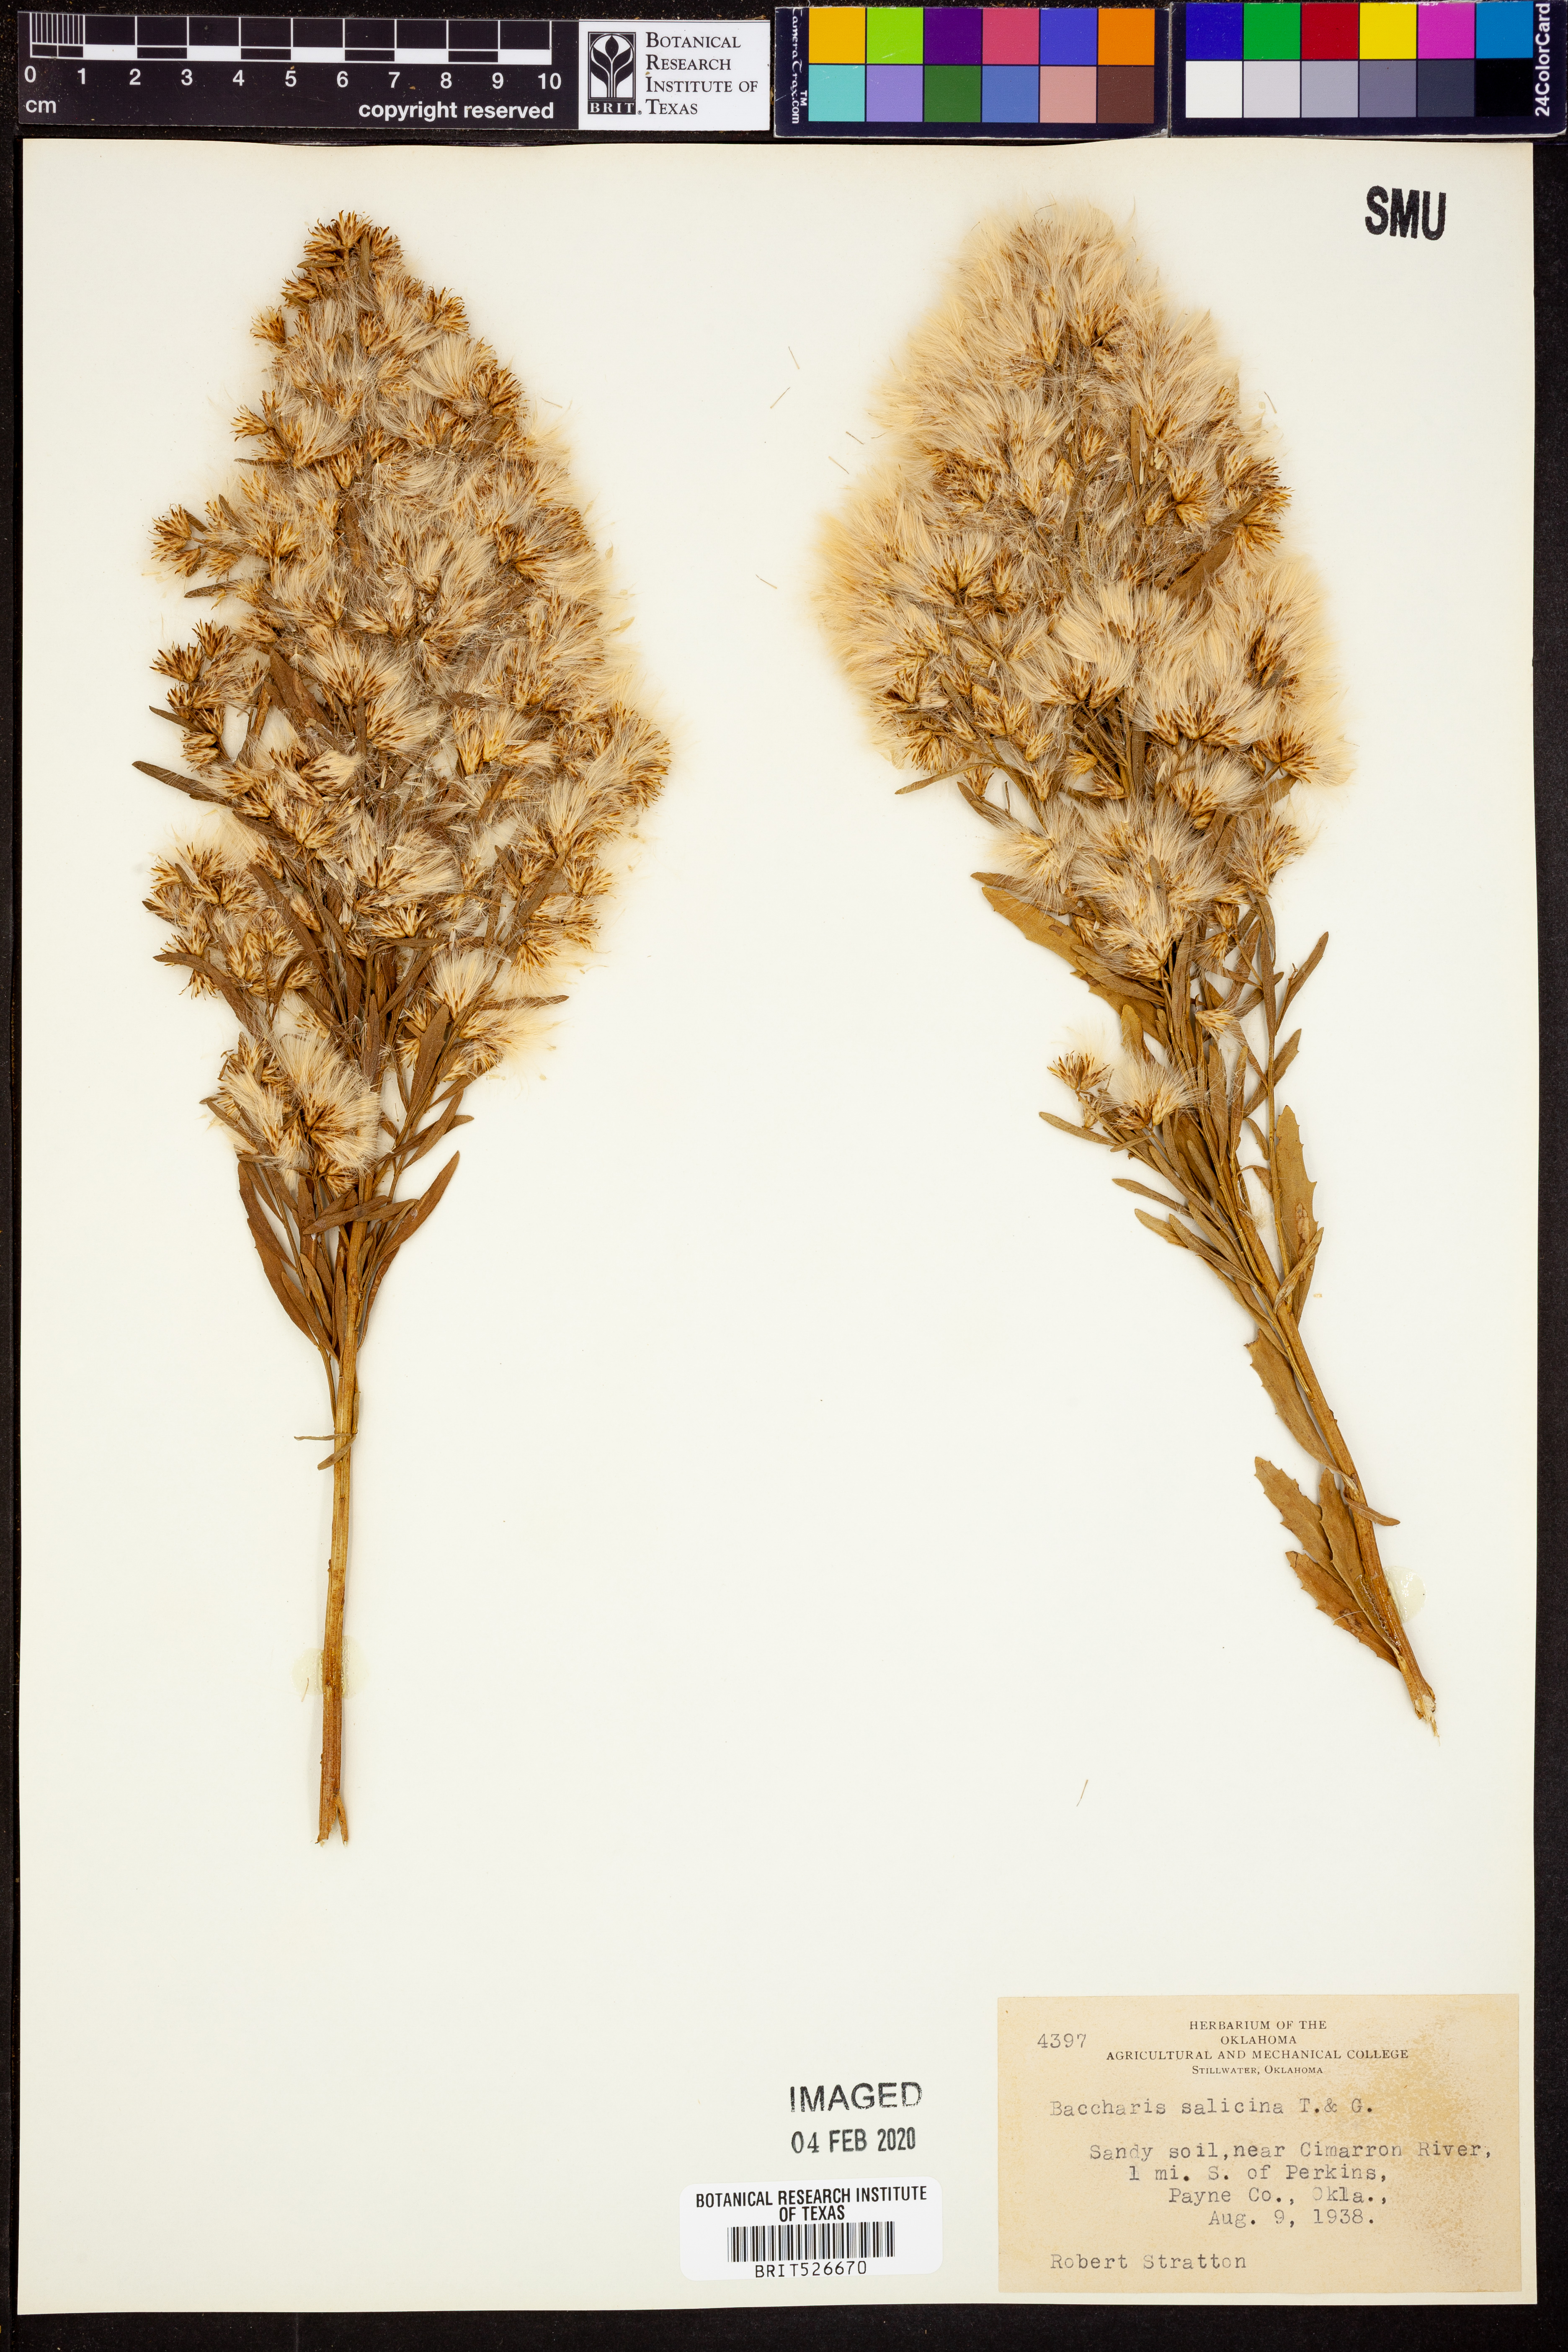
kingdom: Plantae
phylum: Tracheophyta
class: Magnoliopsida
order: Asterales
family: Asteraceae
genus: Baccharis
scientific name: Baccharis salicina
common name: Willow baccharis
